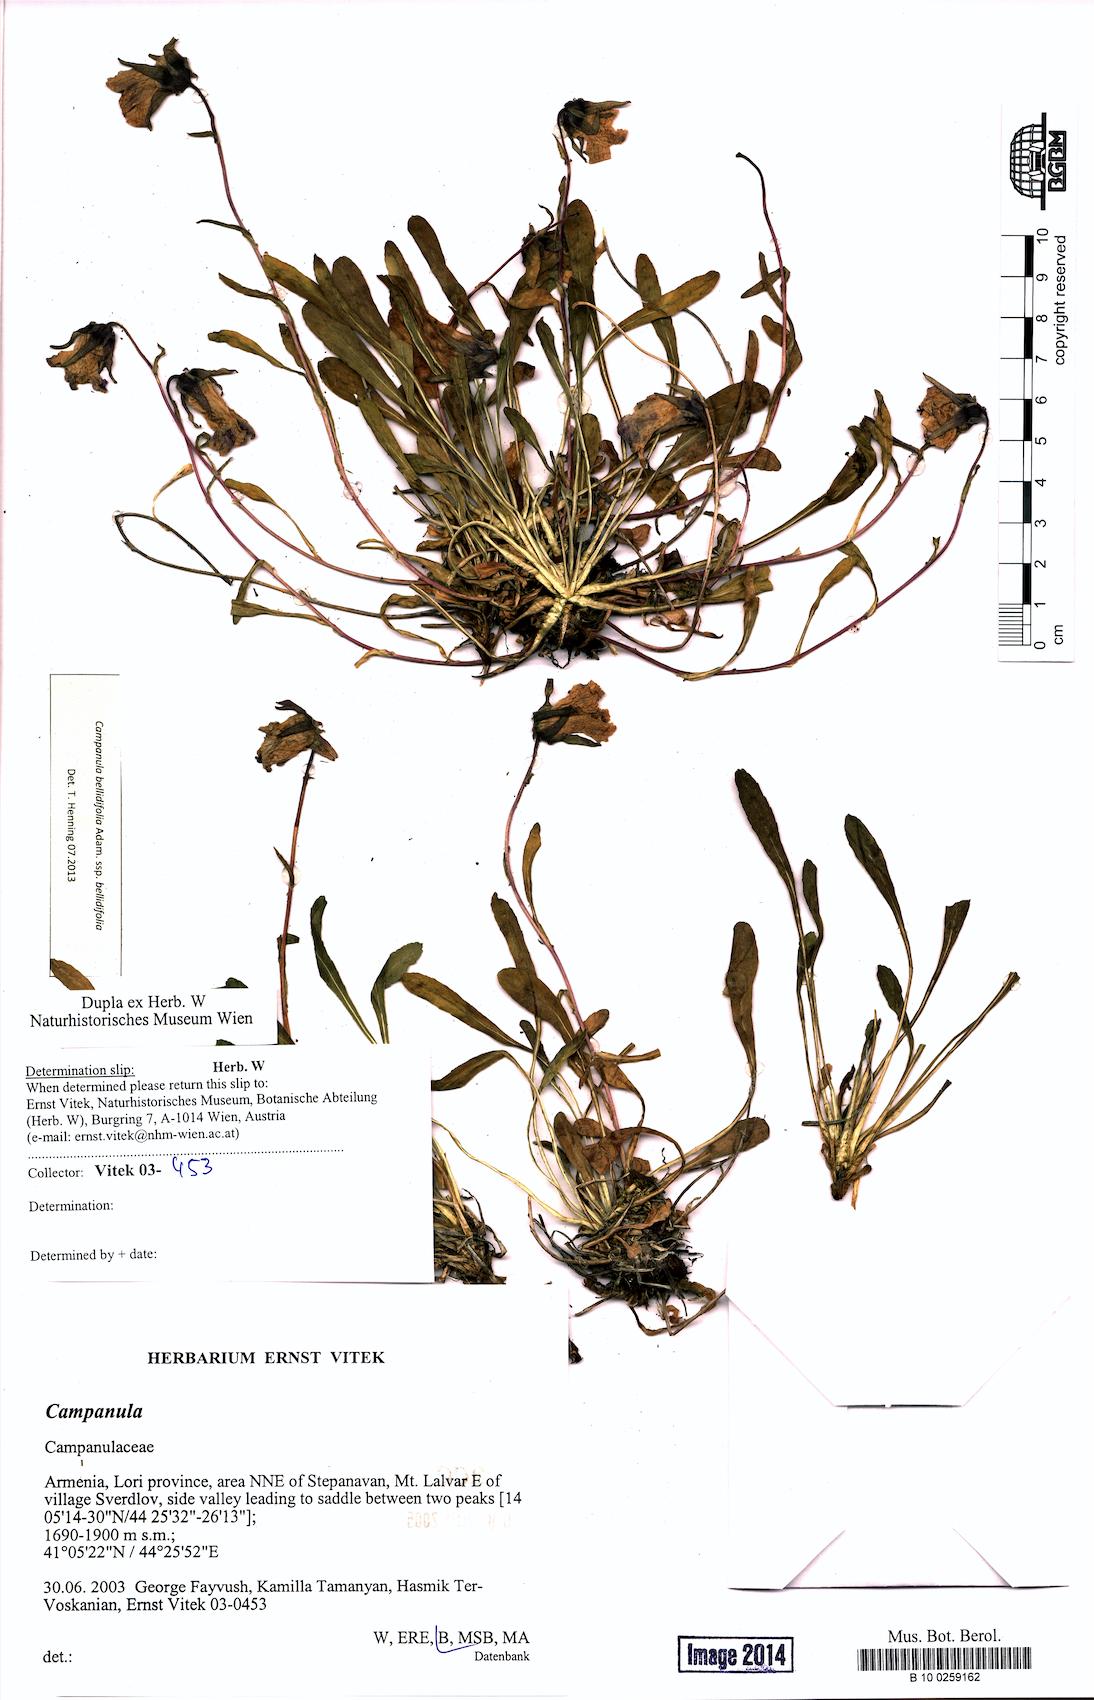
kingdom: Plantae
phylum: Tracheophyta
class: Magnoliopsida
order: Asterales
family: Campanulaceae
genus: Campanula
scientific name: Campanula bellidifolia
